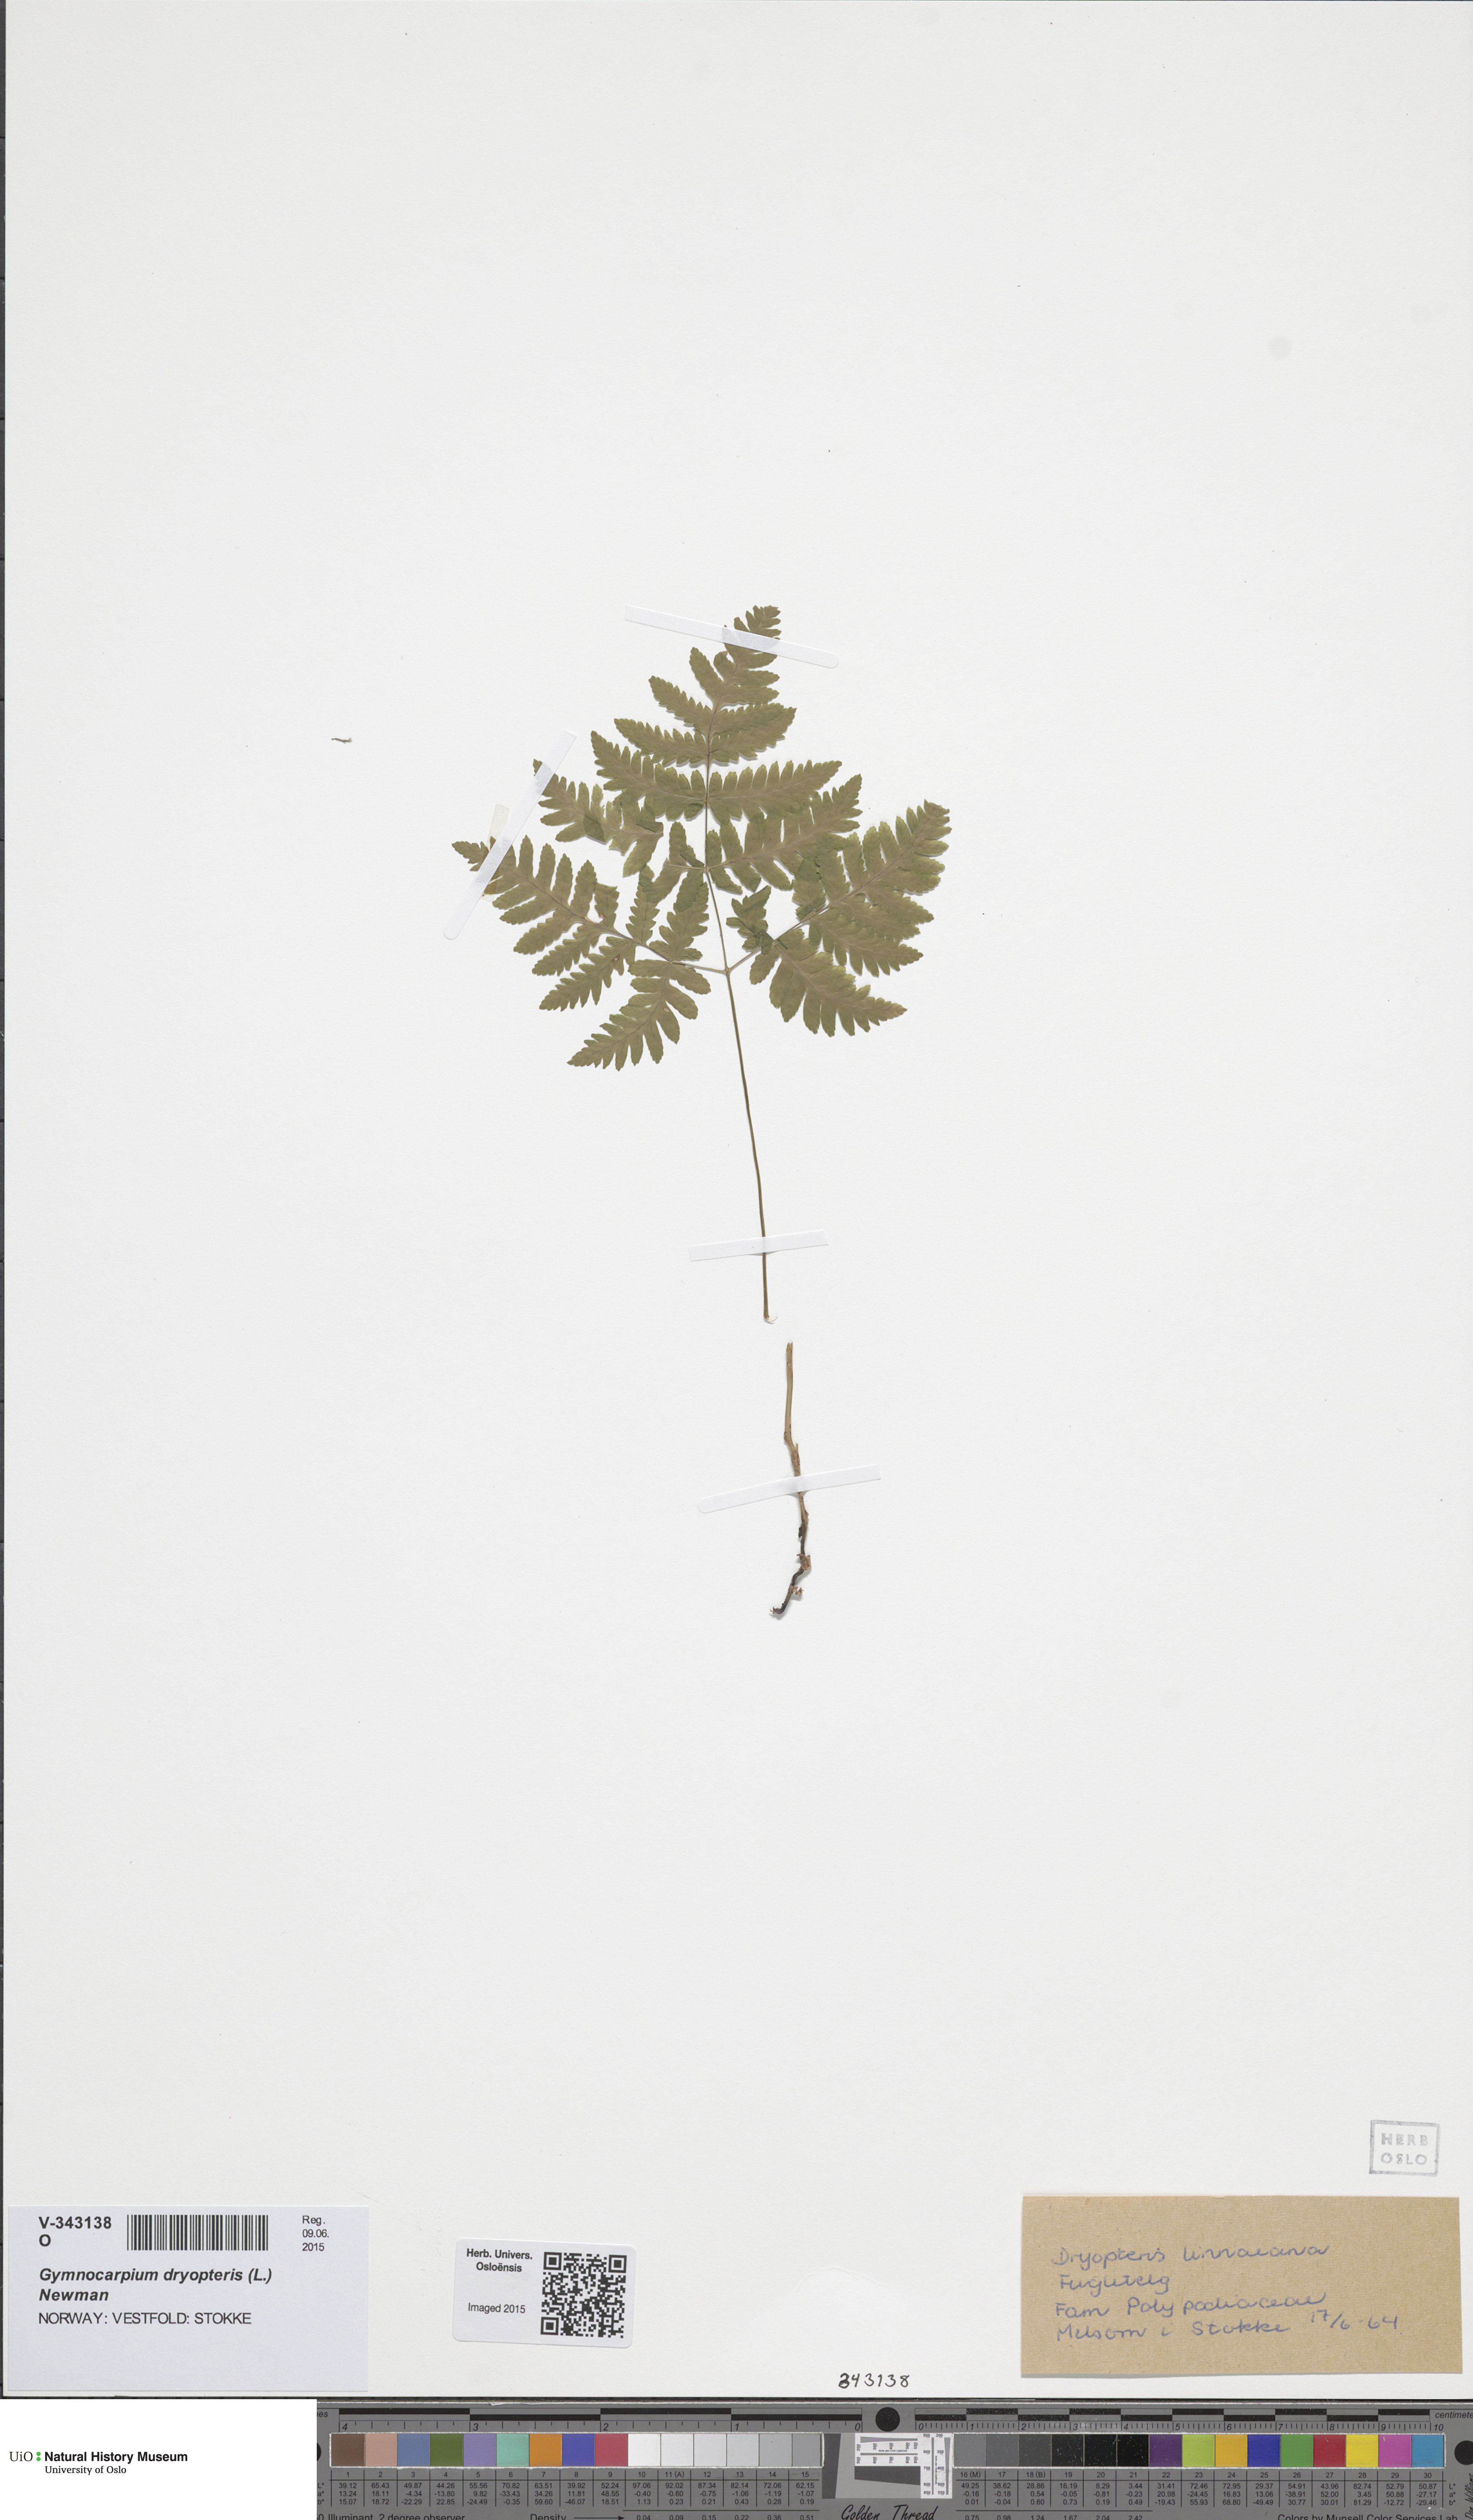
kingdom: Plantae
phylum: Tracheophyta
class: Polypodiopsida
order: Polypodiales
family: Cystopteridaceae
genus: Gymnocarpium
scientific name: Gymnocarpium dryopteris
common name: Oak fern
